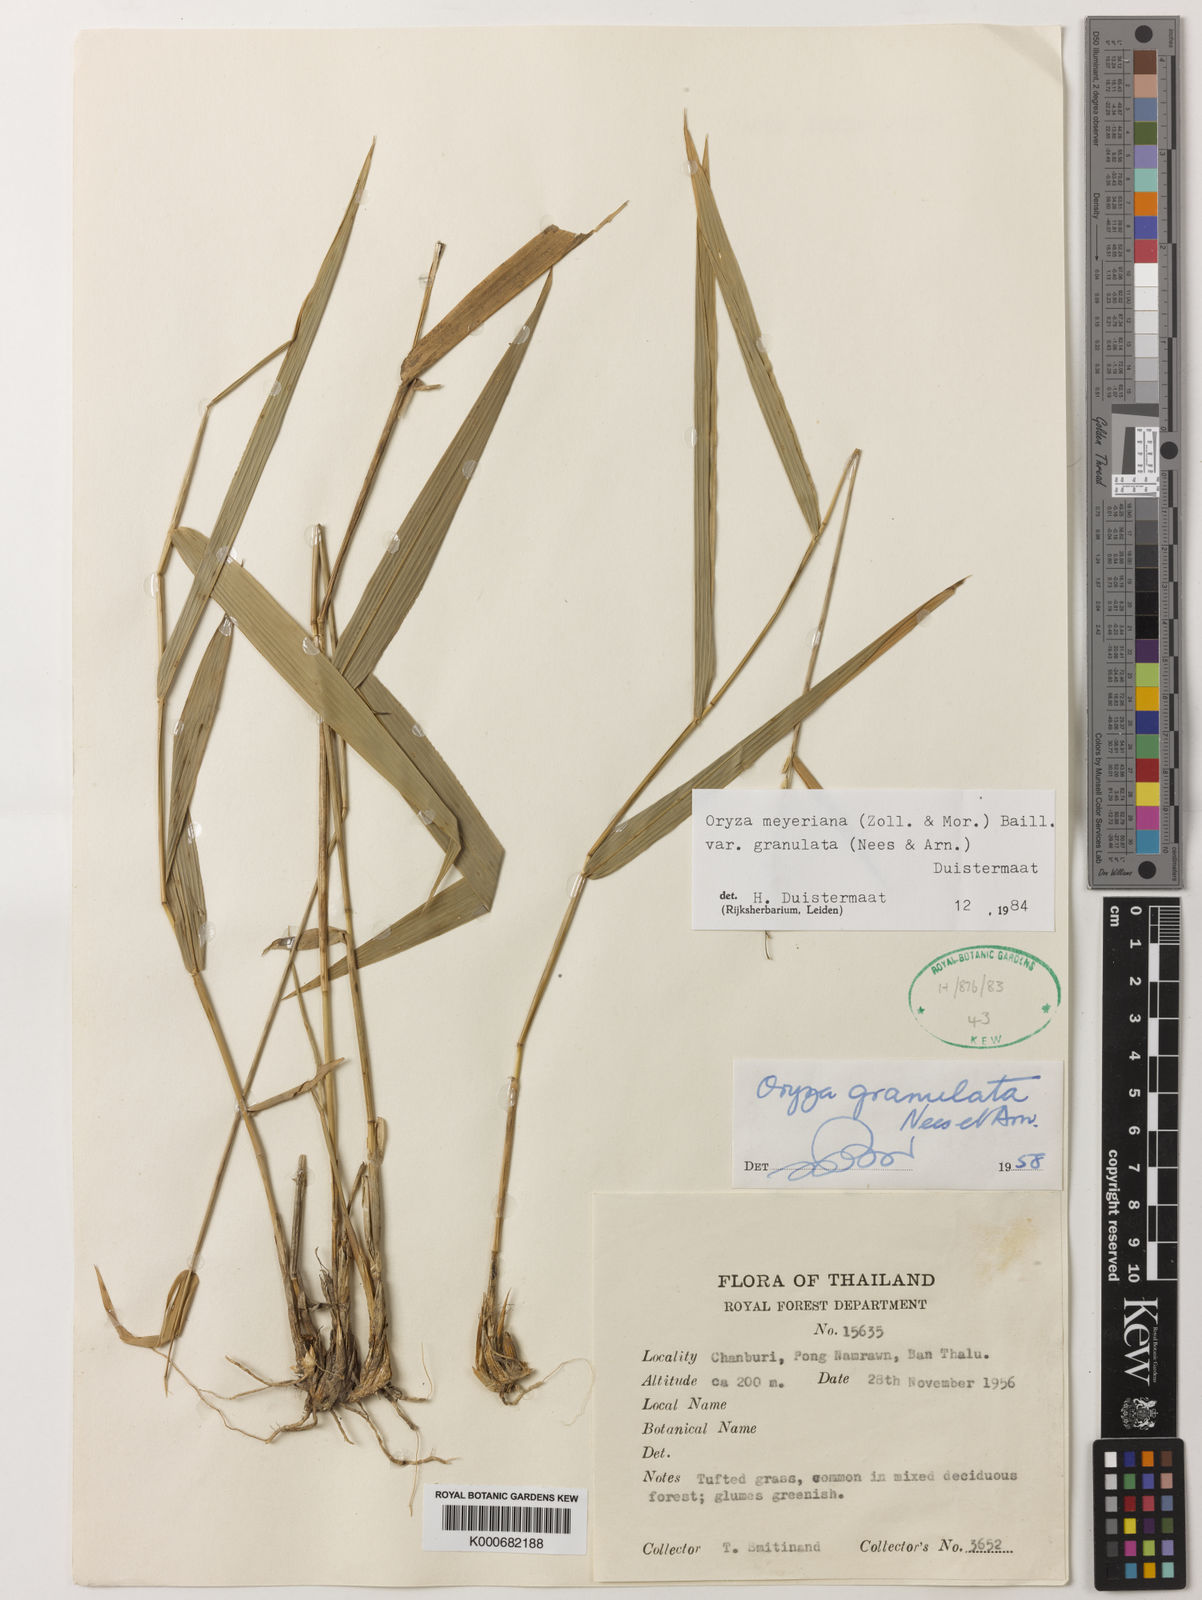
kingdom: Plantae
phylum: Tracheophyta
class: Liliopsida
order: Poales
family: Poaceae
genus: Oryza
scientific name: Oryza meyeriana
